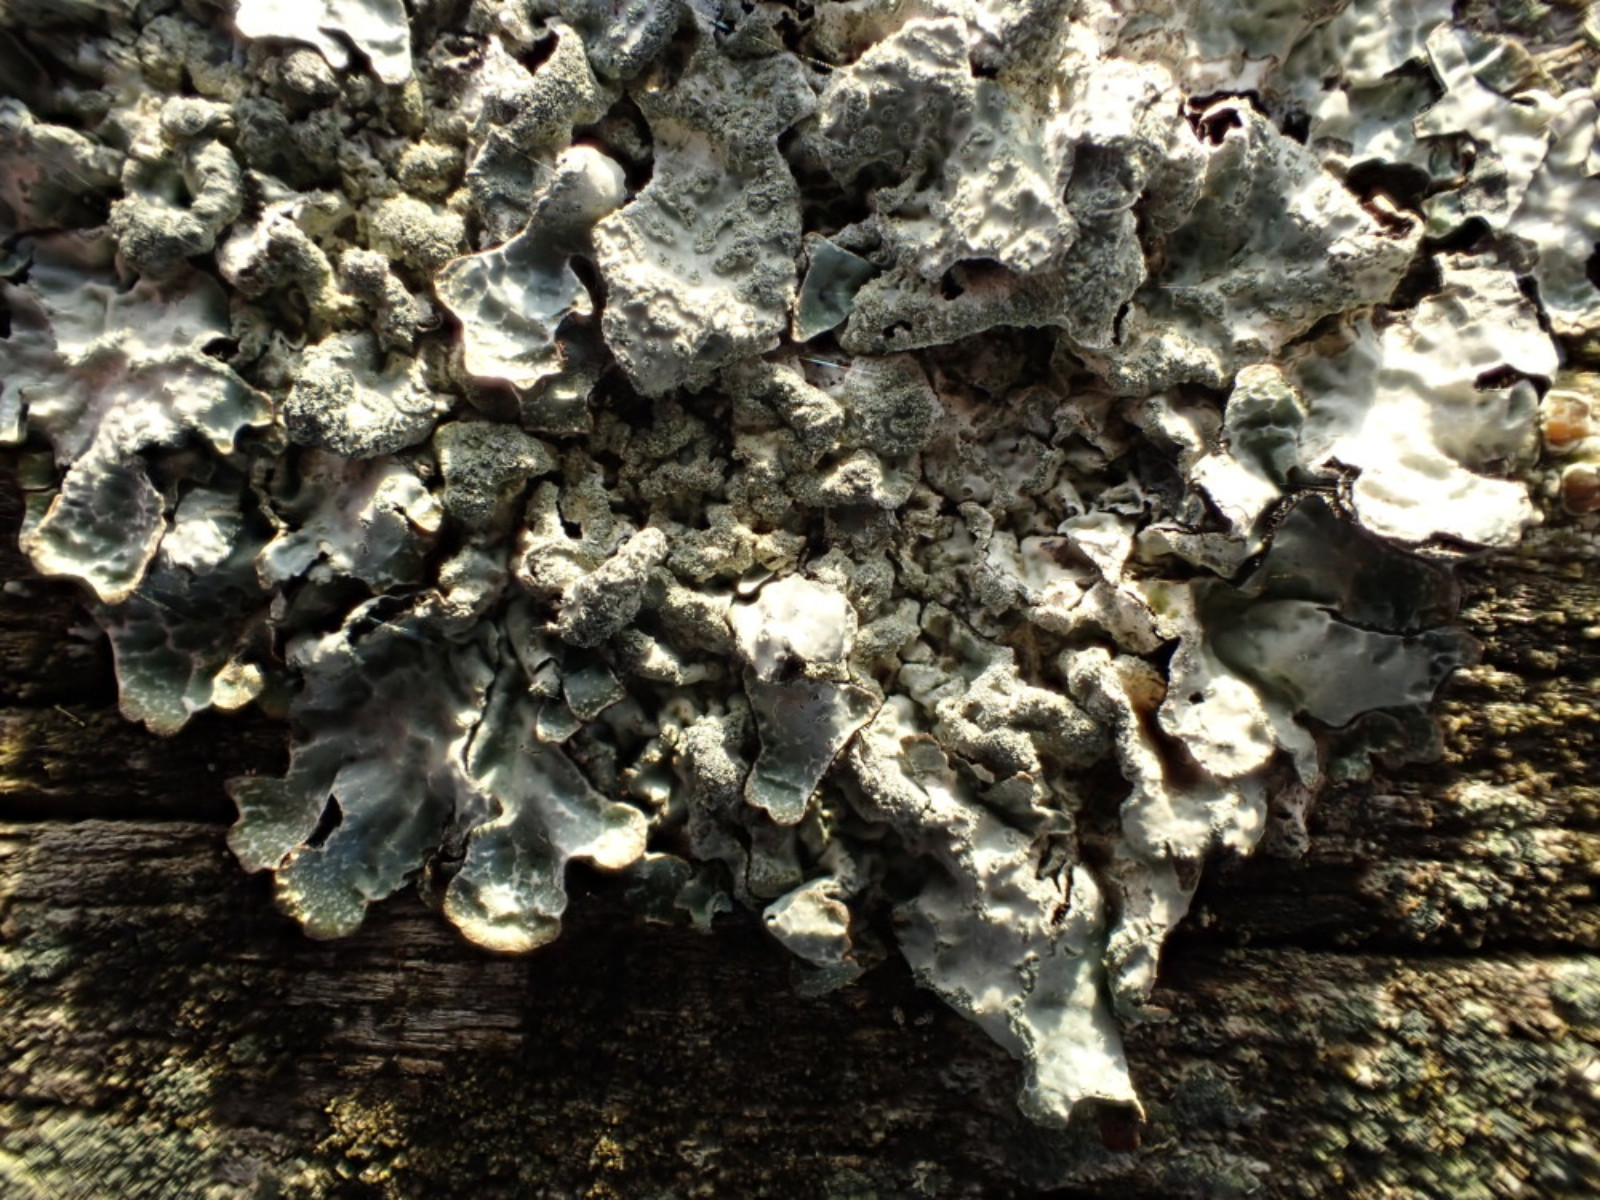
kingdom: Fungi
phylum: Ascomycota
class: Lecanoromycetes
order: Lecanorales
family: Parmeliaceae
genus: Parmelia
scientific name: Parmelia sulcata
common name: rynket skållav
